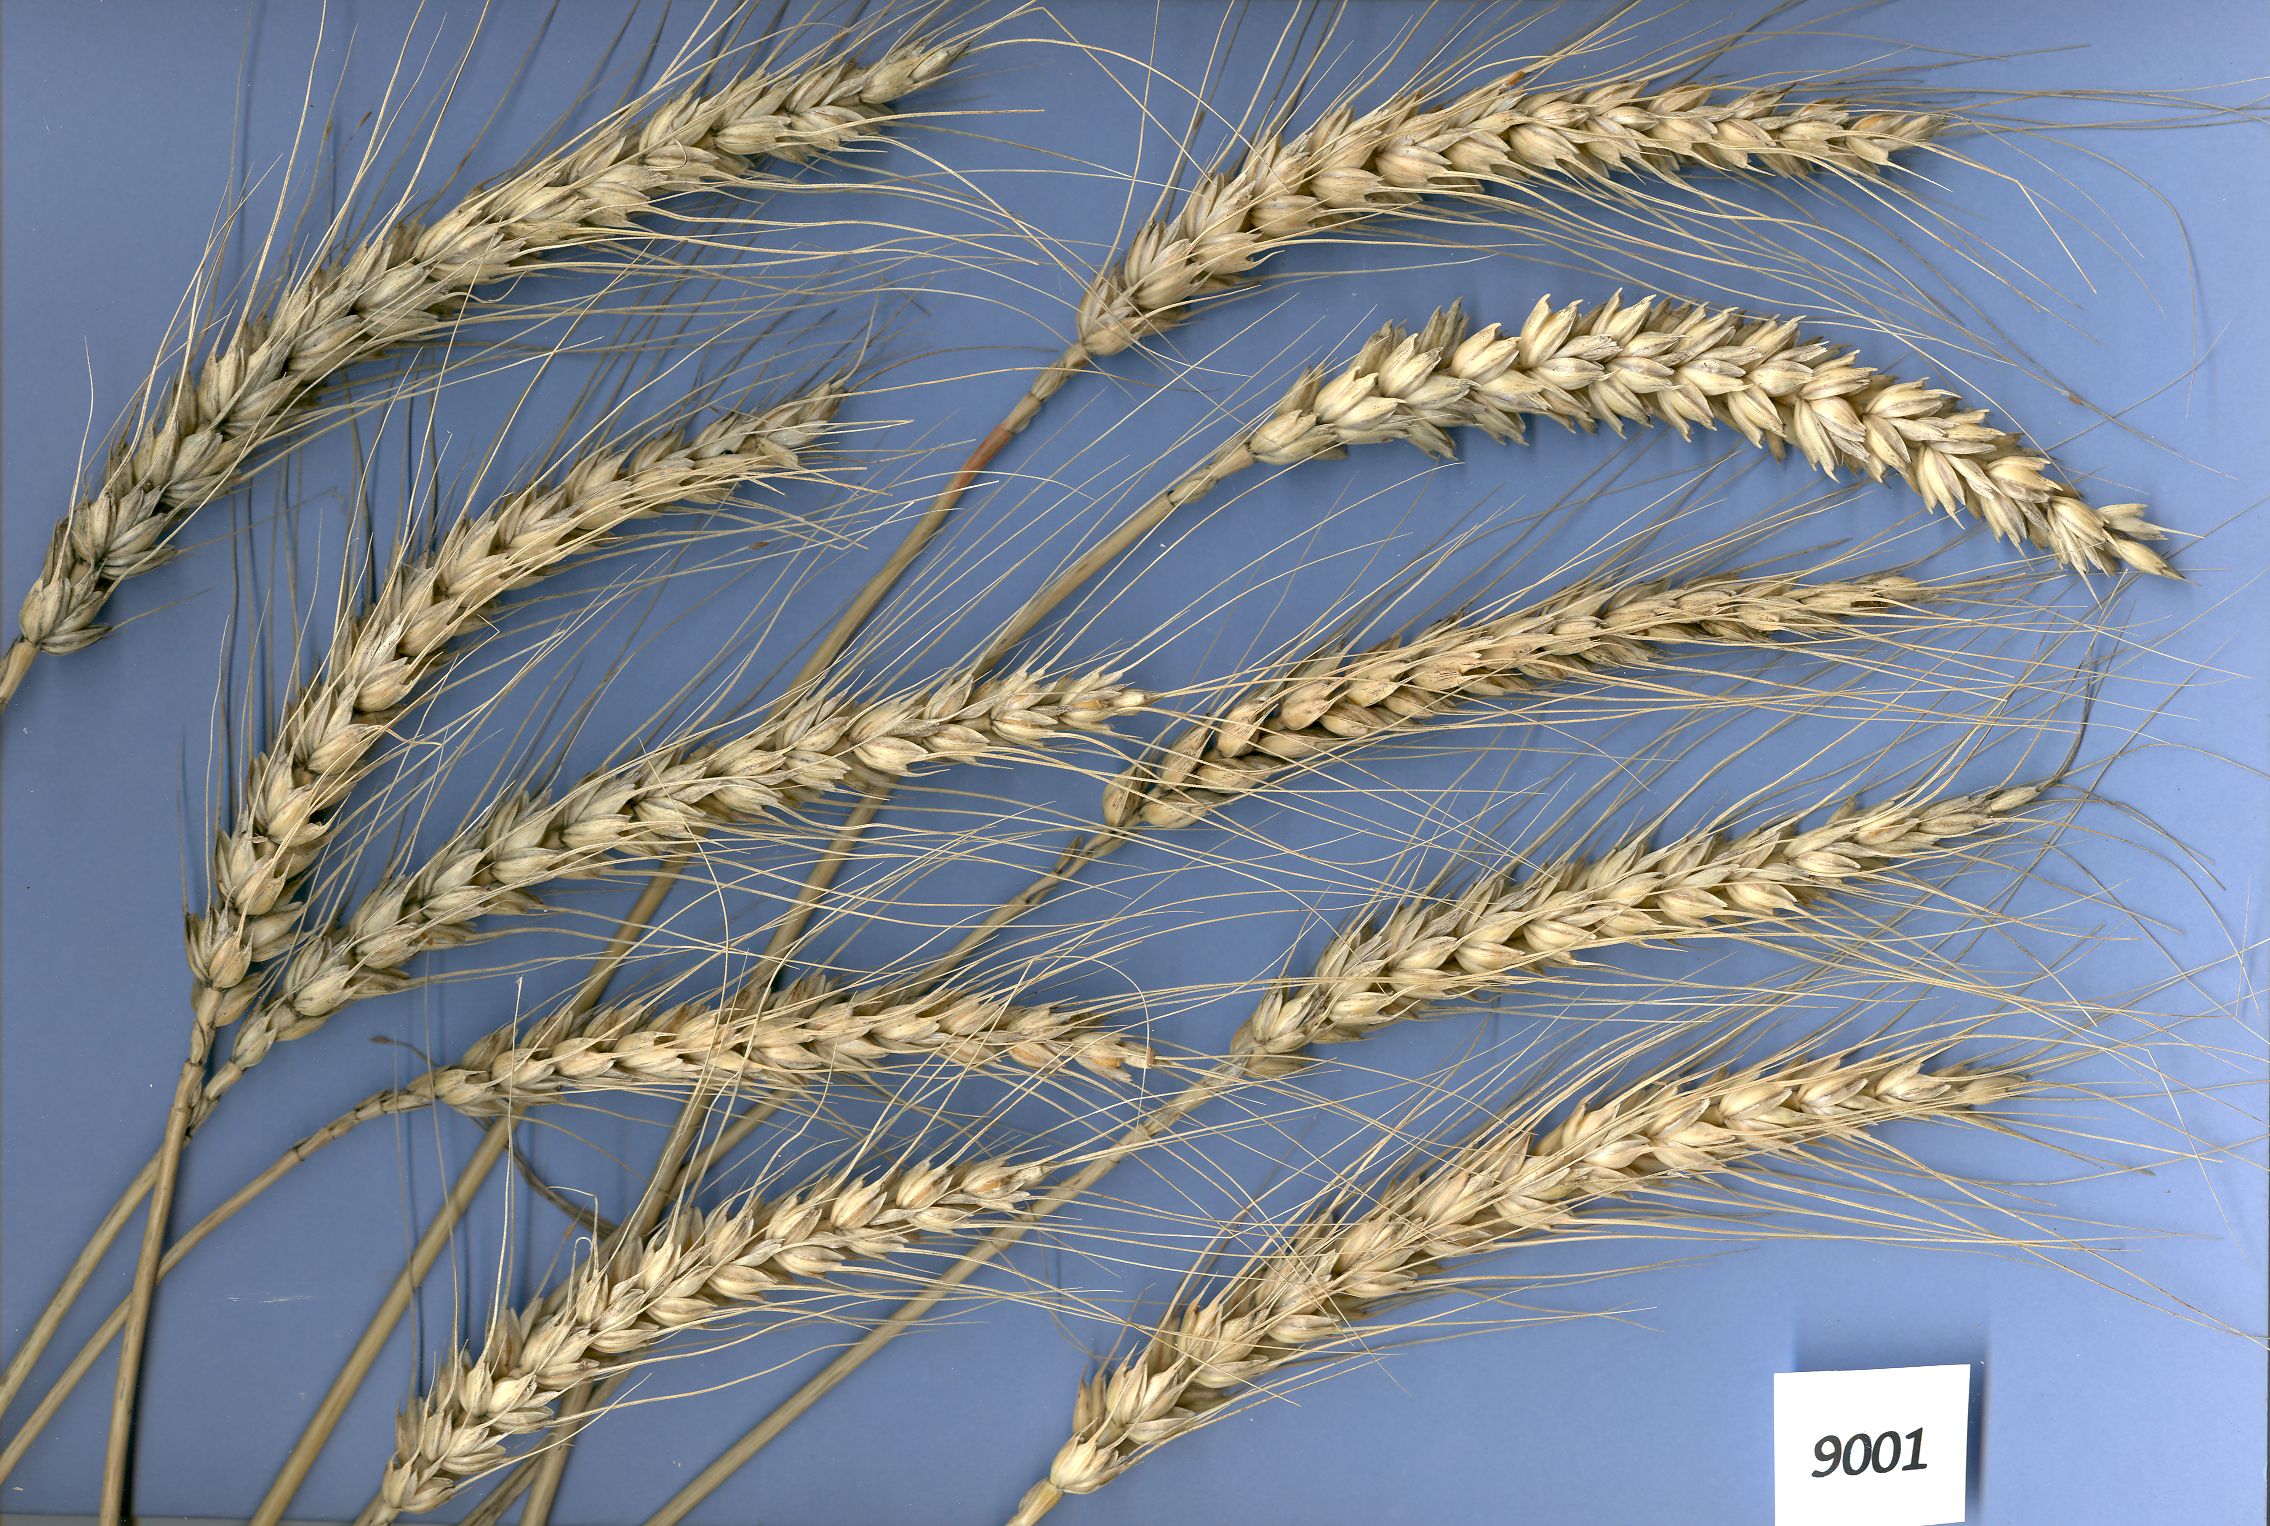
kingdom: Plantae
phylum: Tracheophyta
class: Liliopsida
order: Poales
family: Poaceae
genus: Triticum
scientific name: Triticum aestivum
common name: Common wheat
